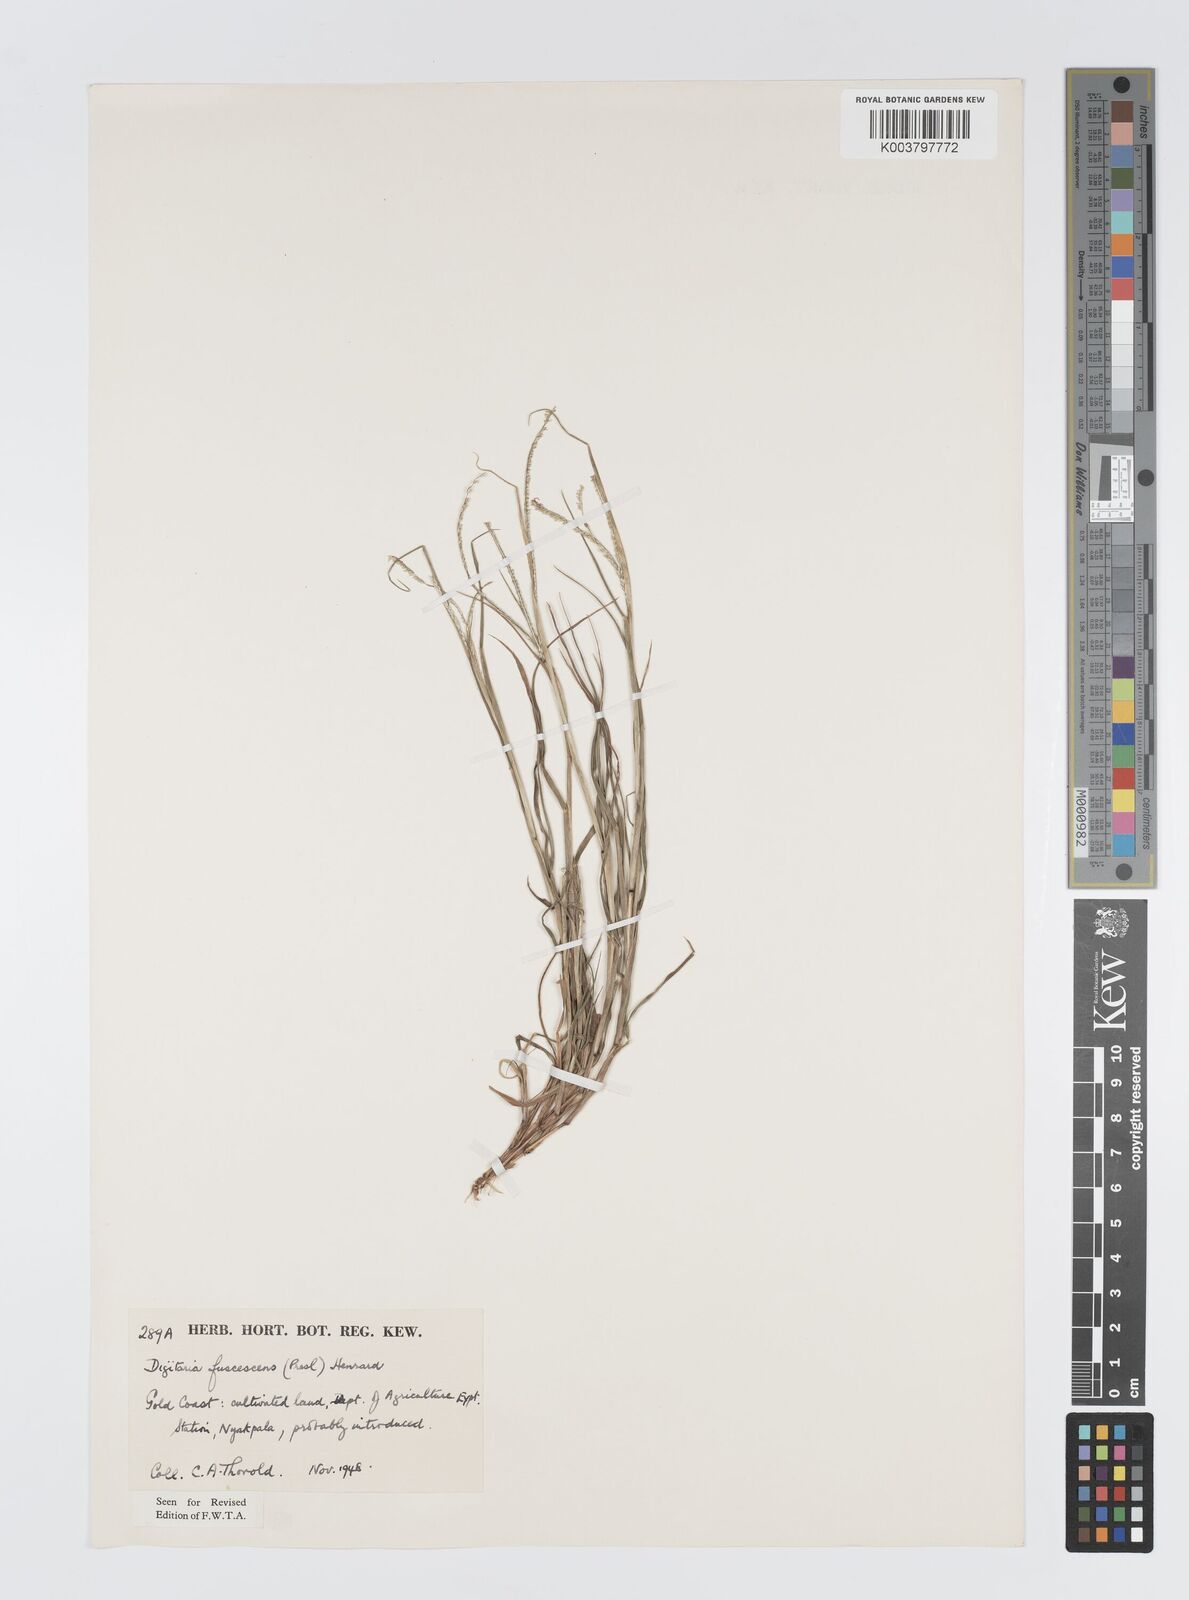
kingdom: Plantae
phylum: Tracheophyta
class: Liliopsida
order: Poales
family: Poaceae
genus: Digitaria
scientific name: Digitaria fuscescens
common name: Yellow crabgrass
